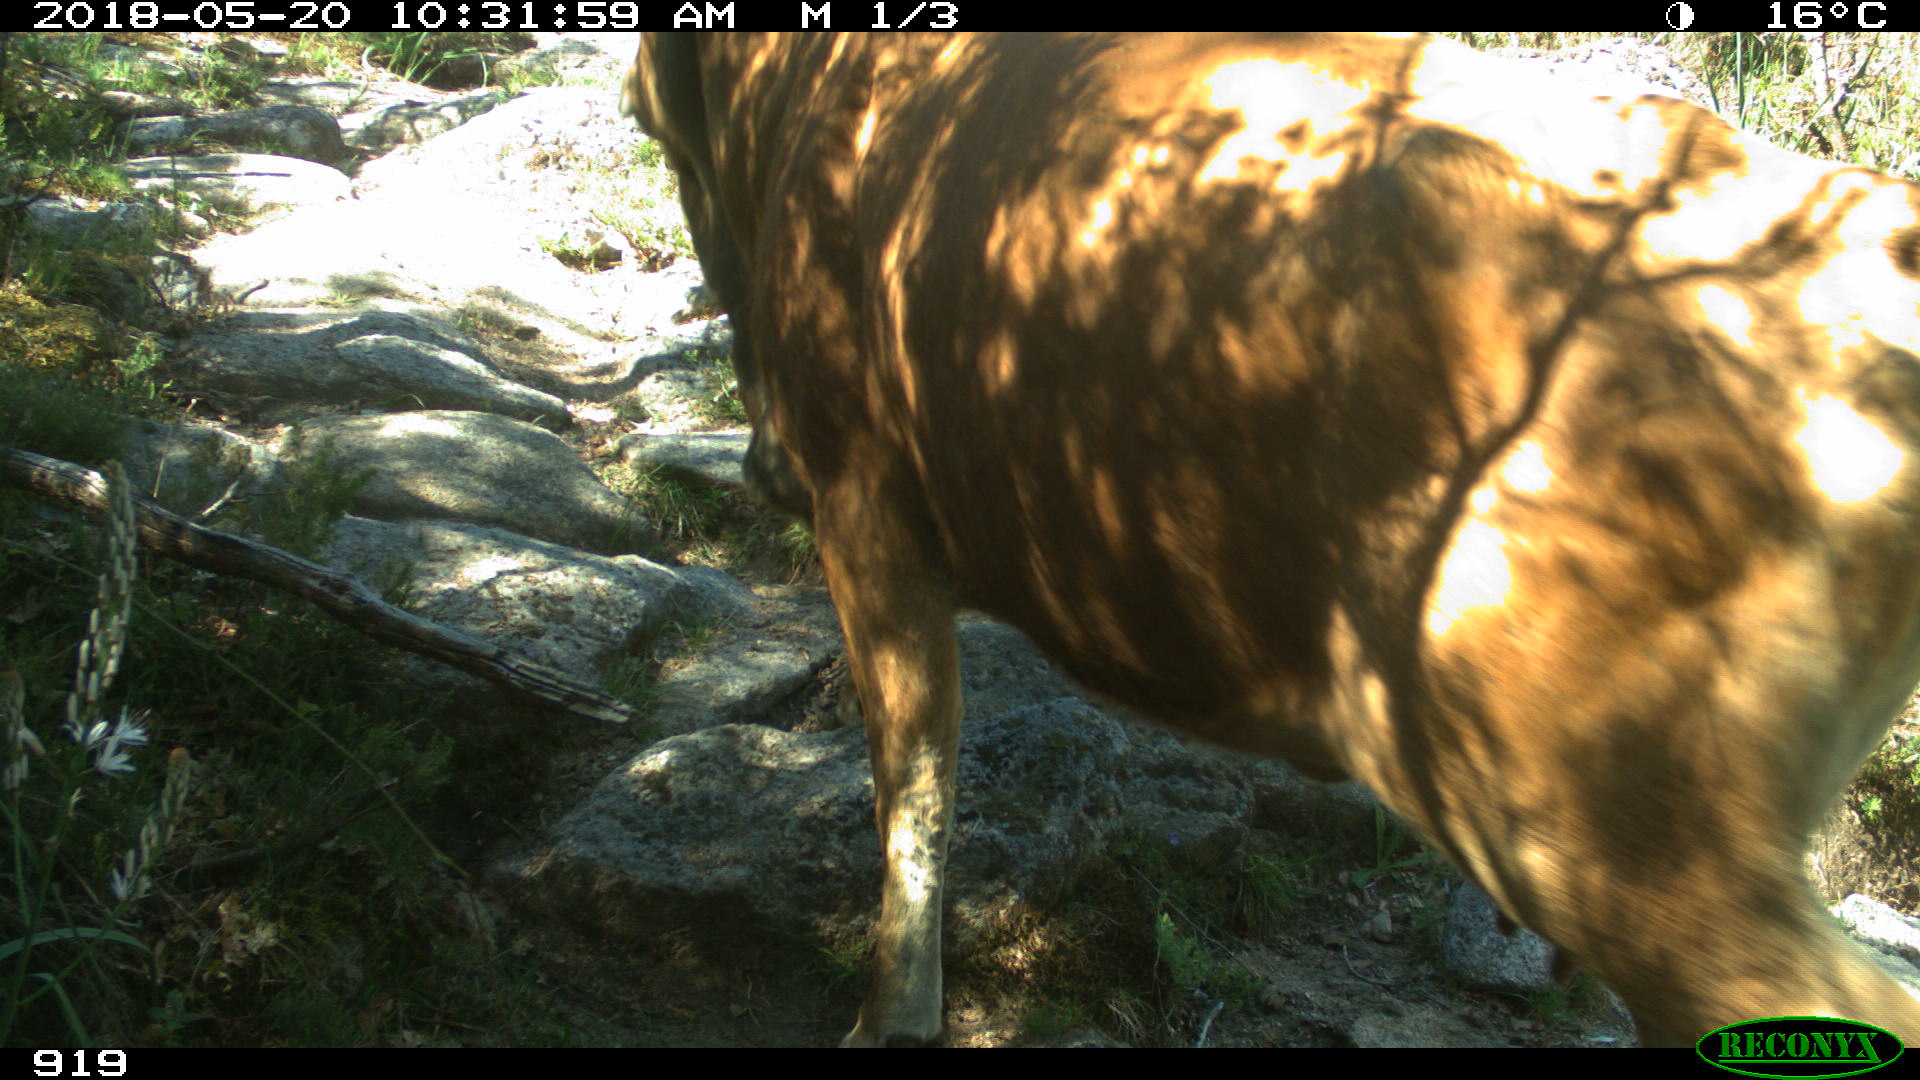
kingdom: Animalia
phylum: Chordata
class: Mammalia
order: Artiodactyla
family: Bovidae
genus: Bos
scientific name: Bos taurus
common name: Domesticated cattle
